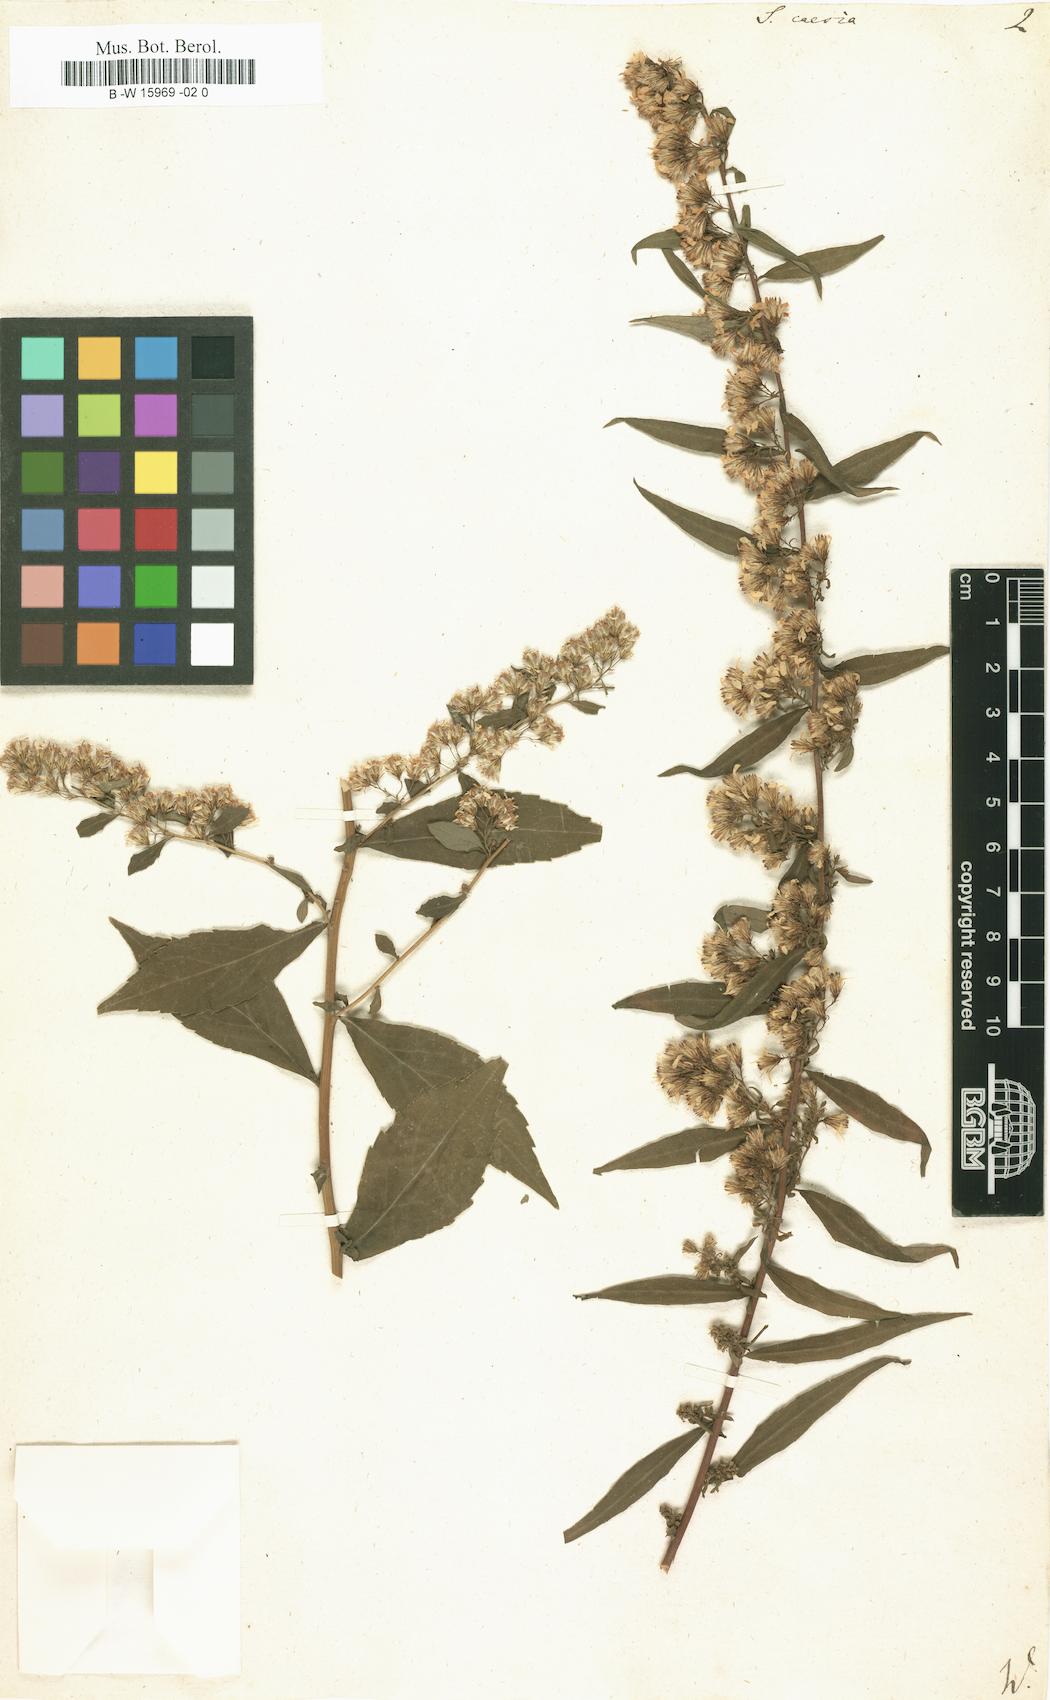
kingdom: Plantae
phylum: Tracheophyta
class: Magnoliopsida
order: Asterales
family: Asteraceae
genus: Solidago
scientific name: Solidago caesia
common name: Woodland goldenrod
